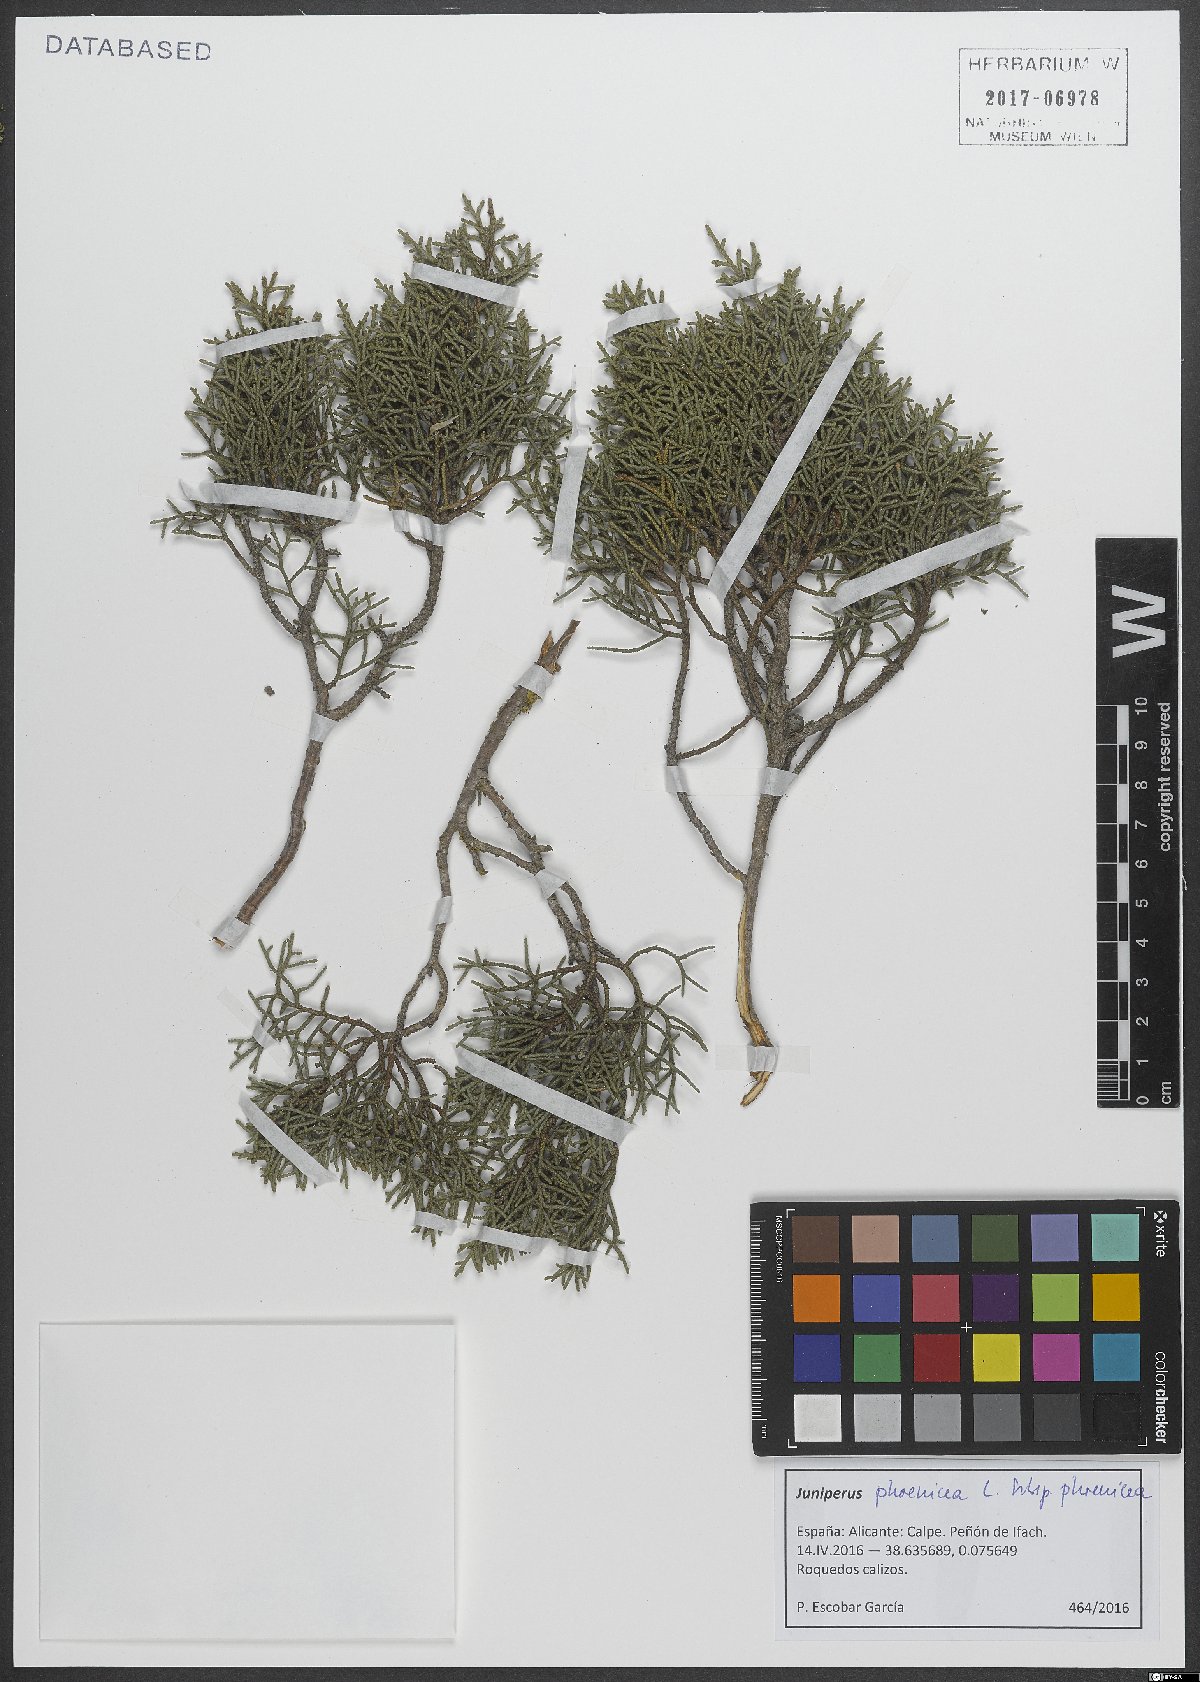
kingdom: Plantae
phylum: Tracheophyta
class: Pinopsida
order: Pinales
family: Cupressaceae
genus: Juniperus
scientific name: Juniperus phoenicea
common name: Phoenician juniper
